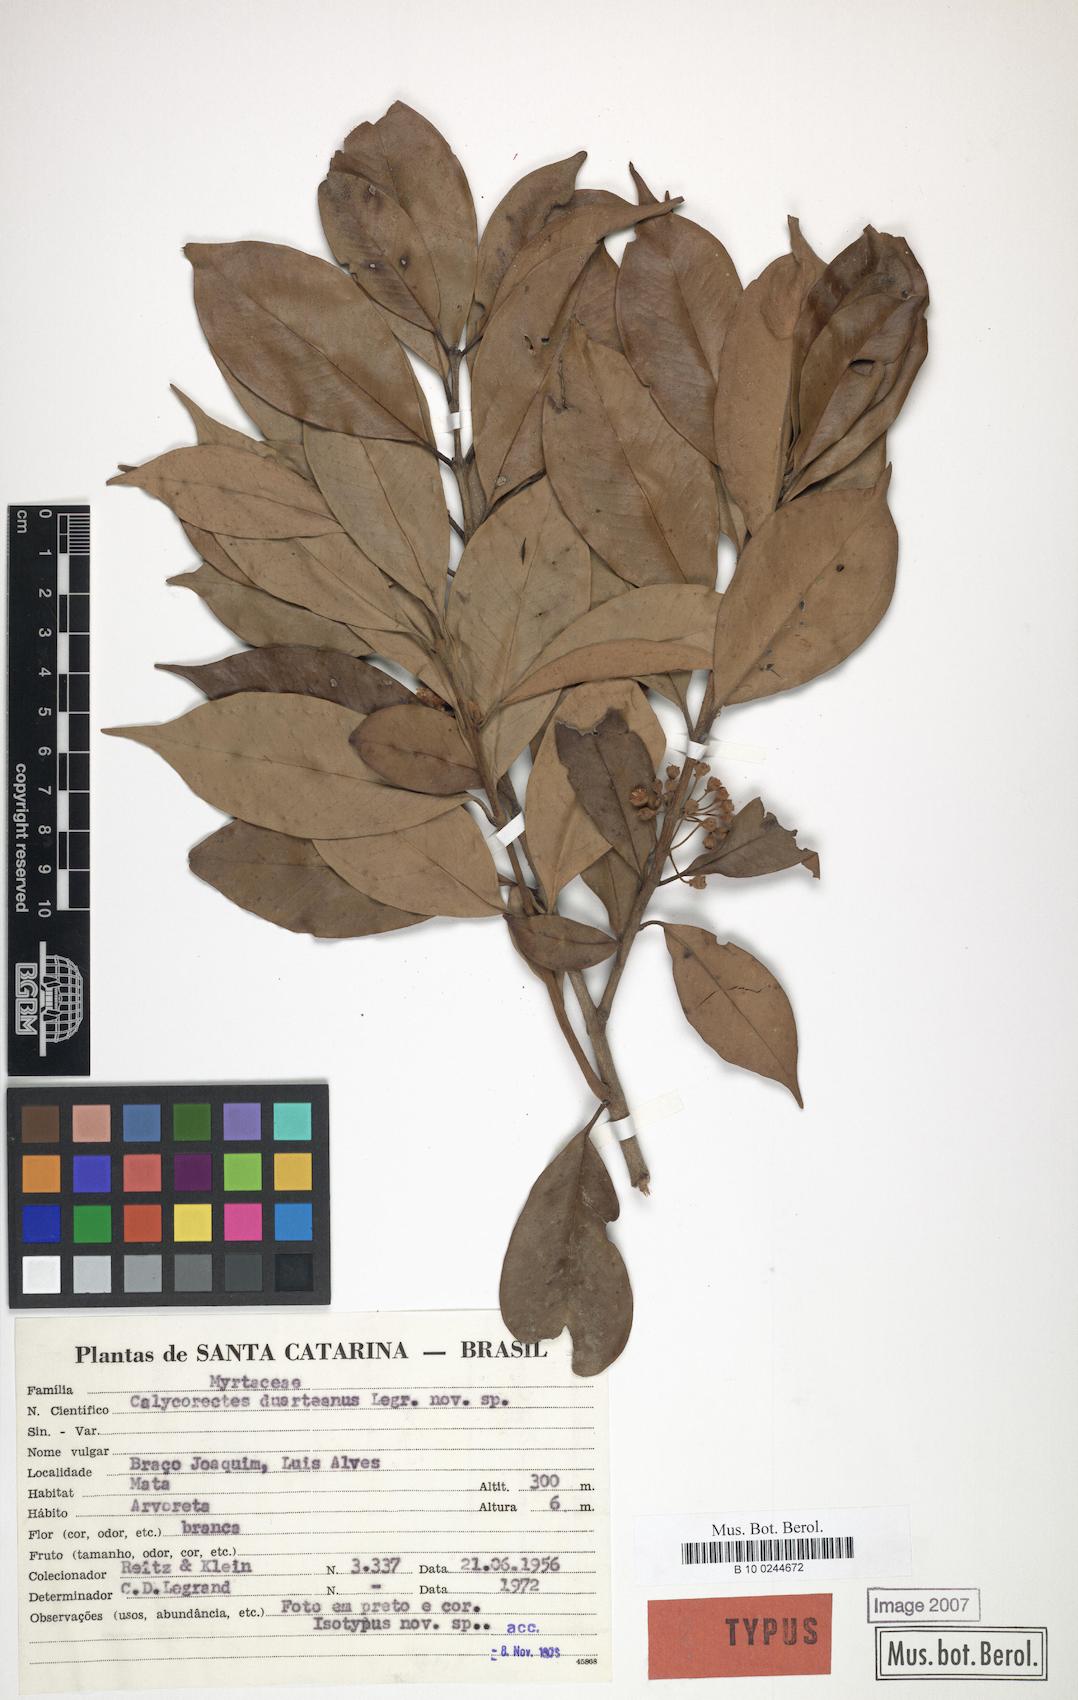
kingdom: Plantae
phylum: Tracheophyta
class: Magnoliopsida
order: Myrtales
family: Myrtaceae
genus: Eugenia
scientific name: Eugenia brevistyla
